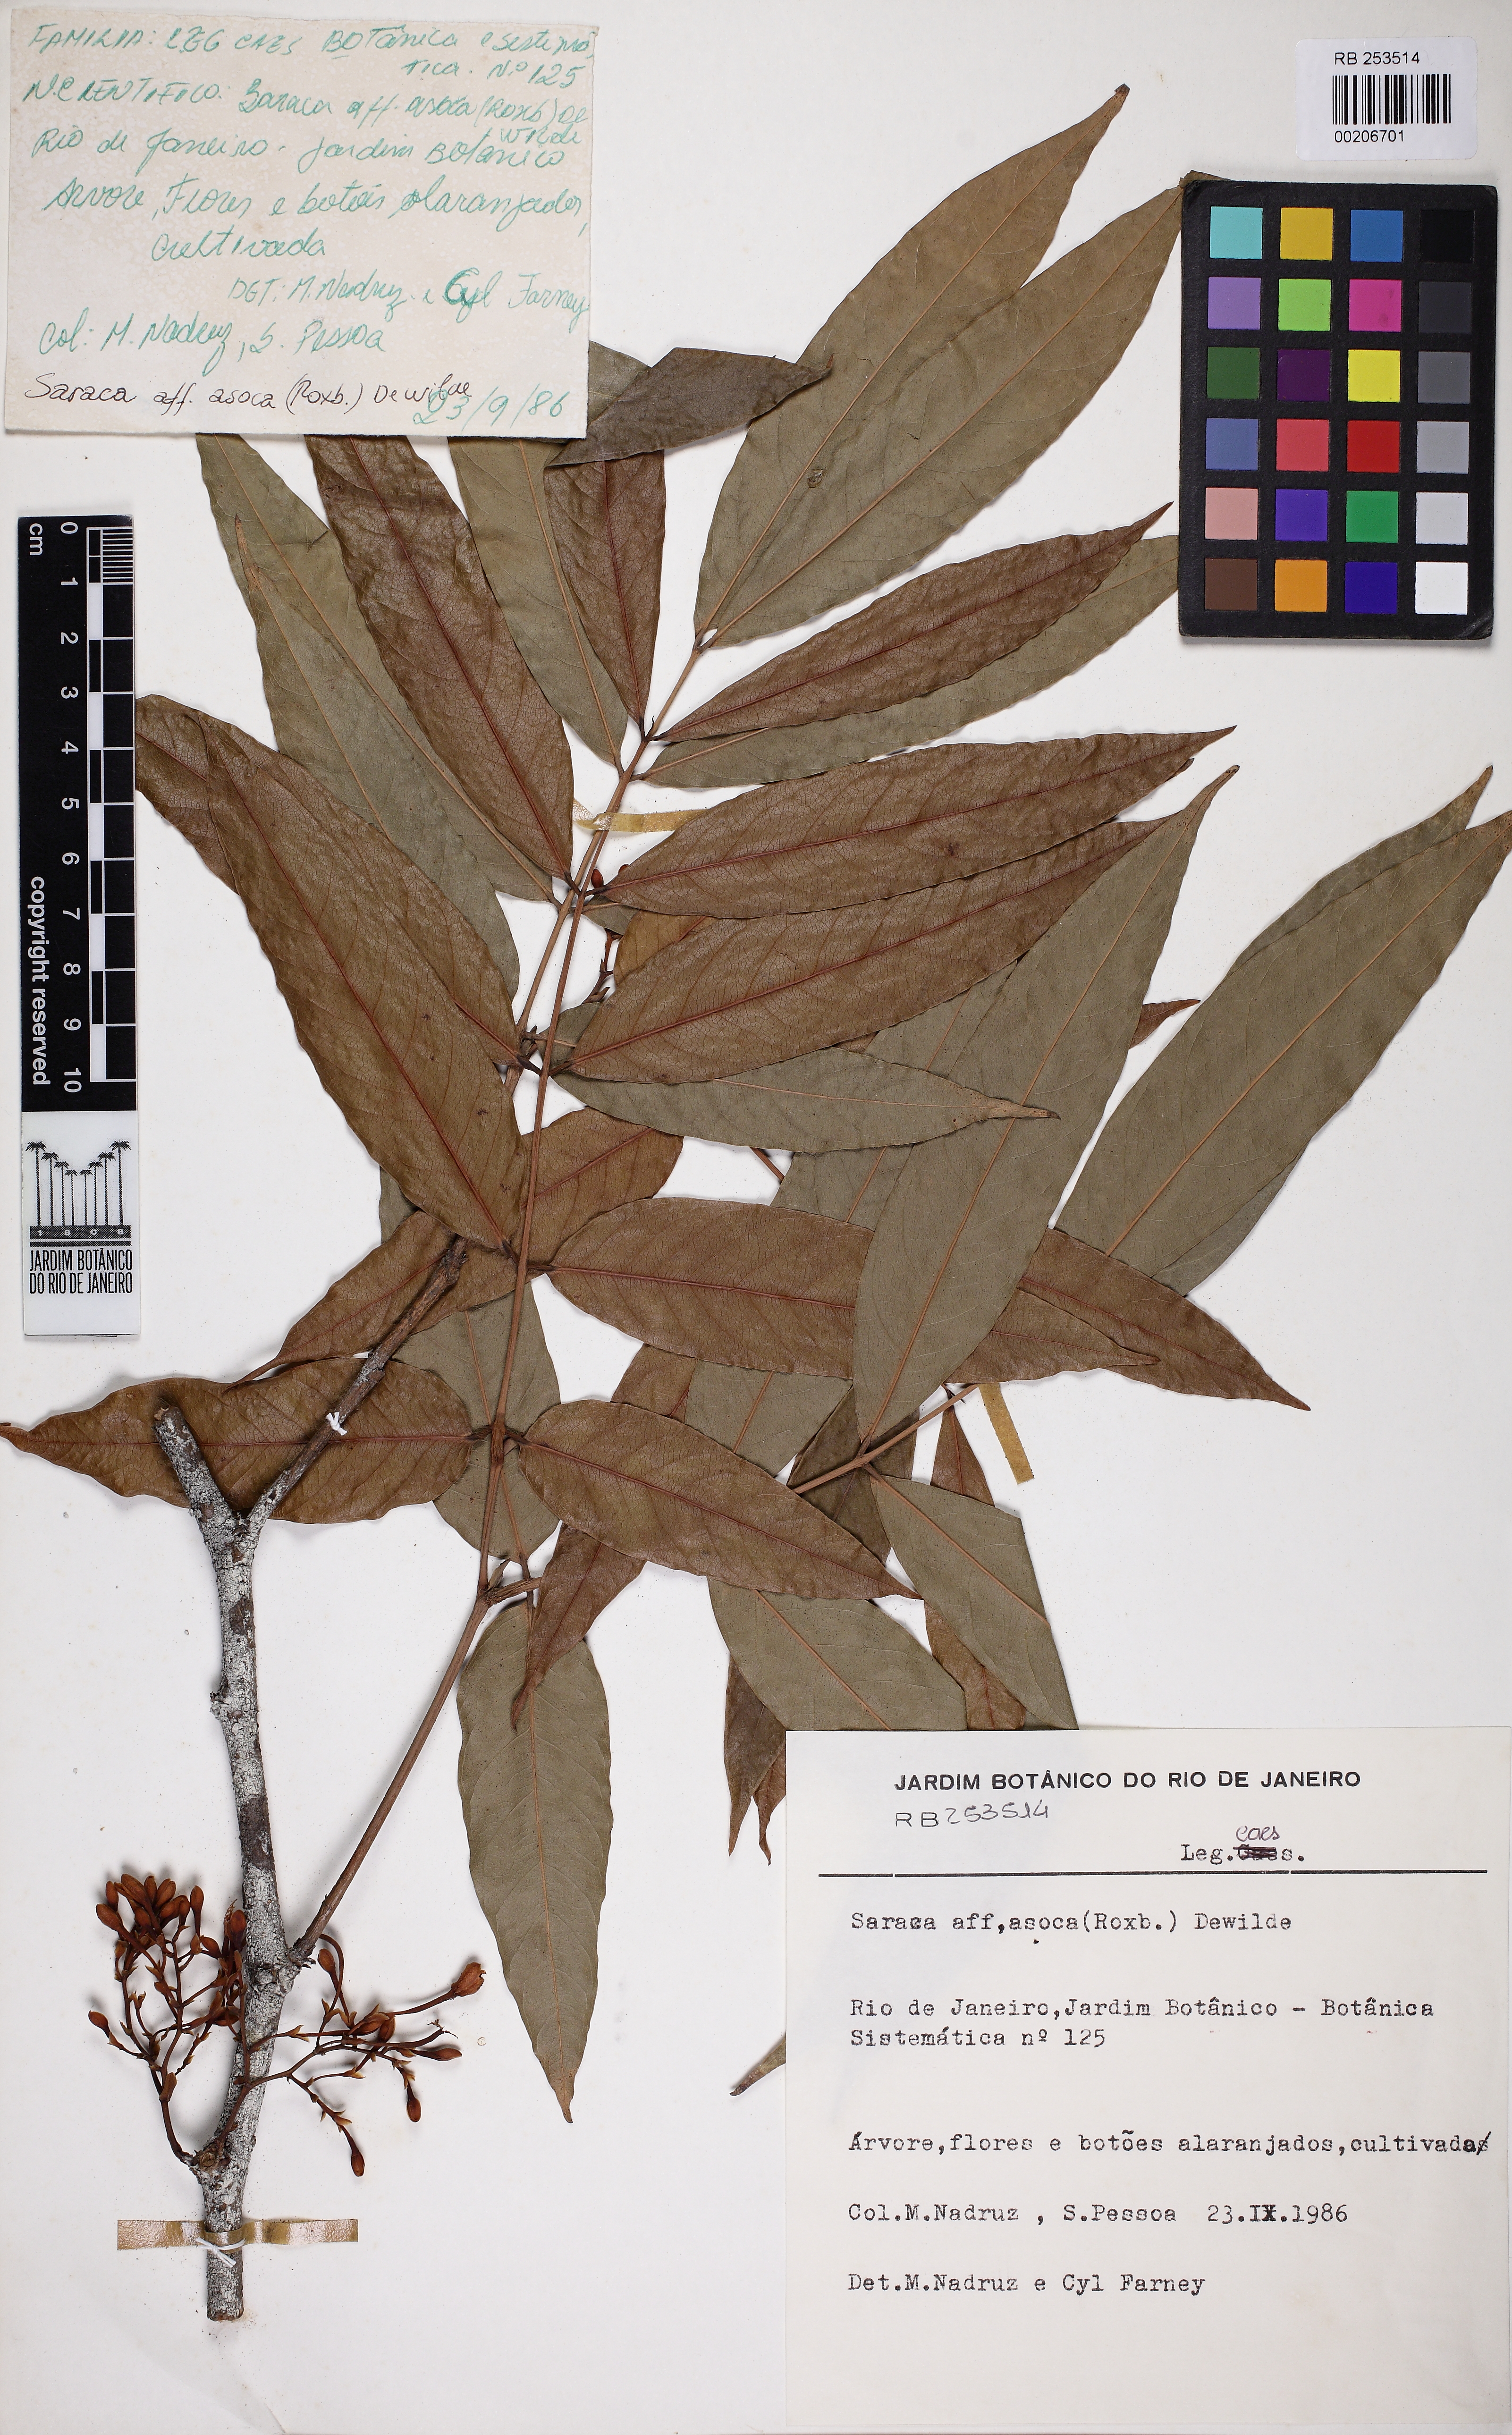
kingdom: Plantae
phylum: Tracheophyta
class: Magnoliopsida
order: Fabales
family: Fabaceae
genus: Saraca
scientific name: Saraca asoca
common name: Asoka-tree
